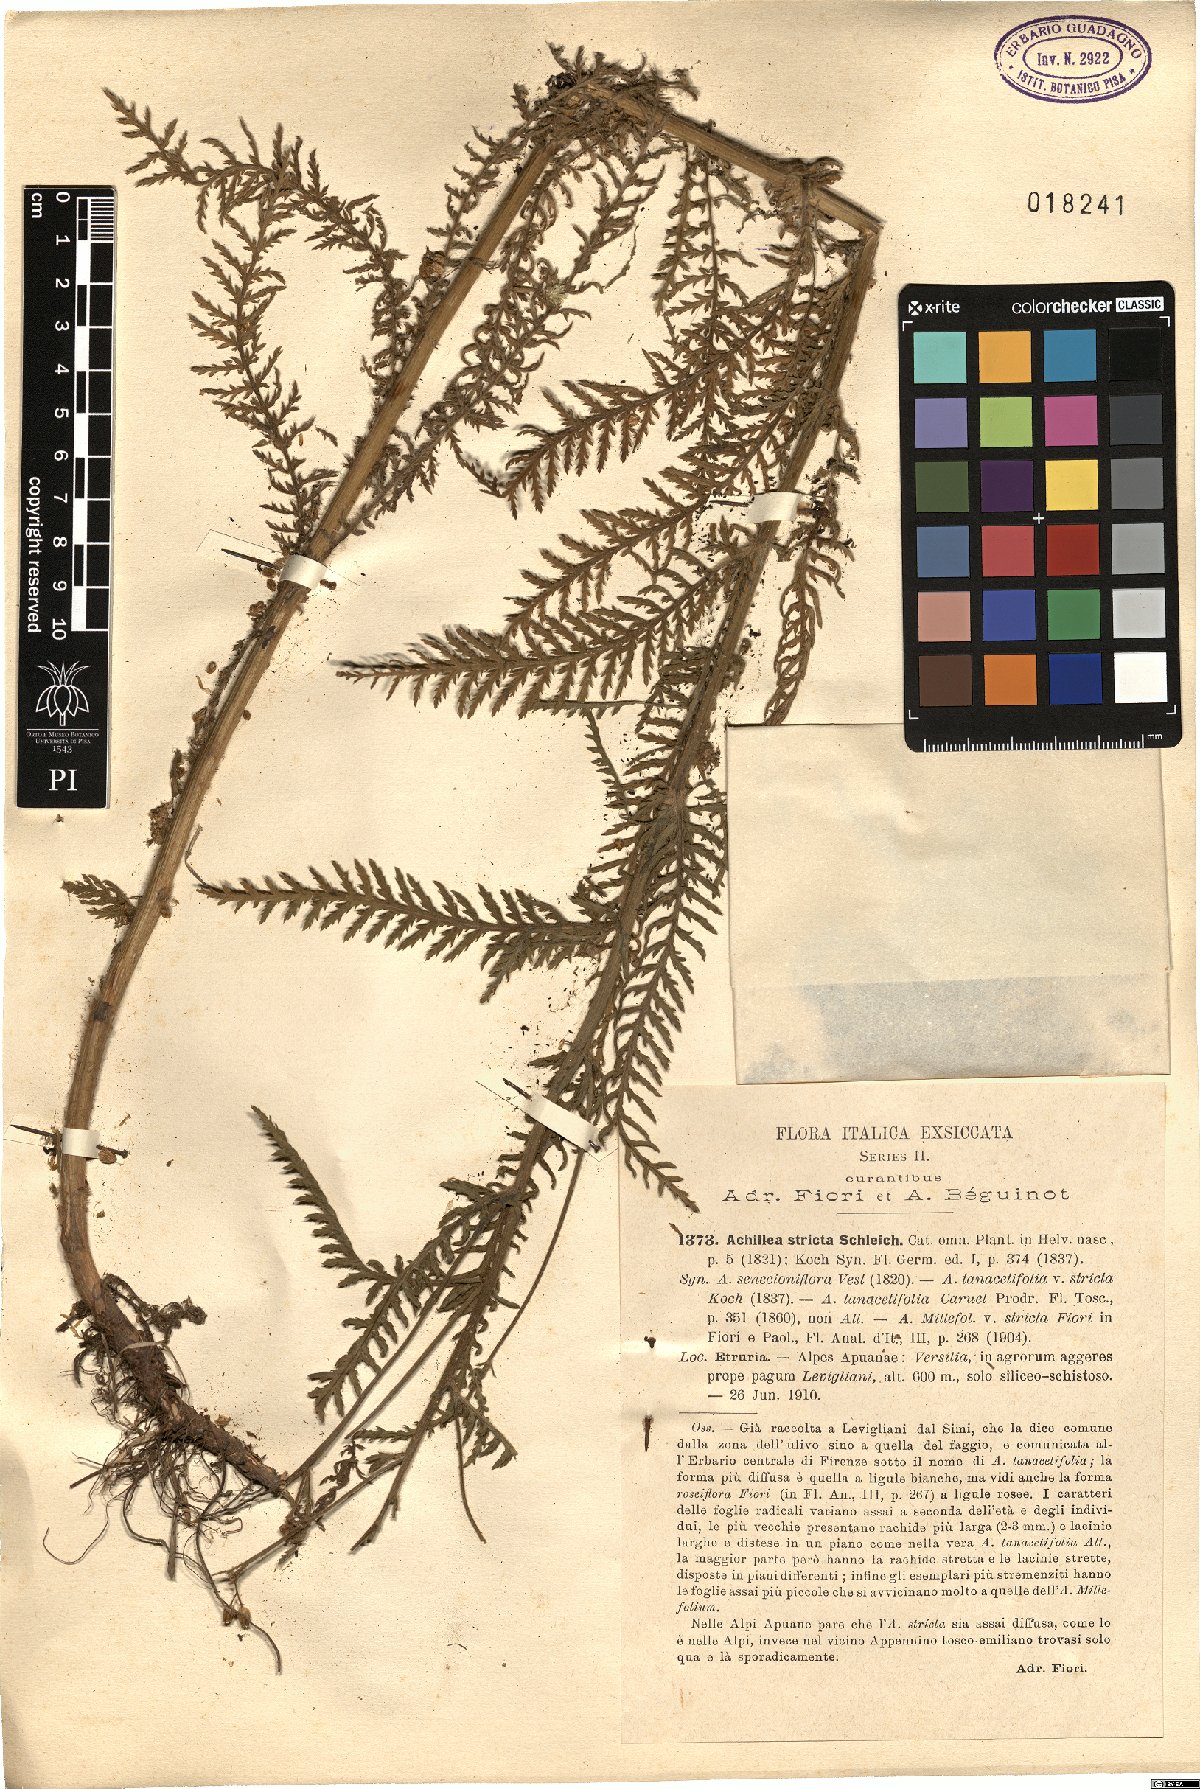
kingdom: Plantae
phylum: Tracheophyta
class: Magnoliopsida
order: Asterales
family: Asteraceae
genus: Achillea
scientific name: Achillea distans
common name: Tall yarrow
